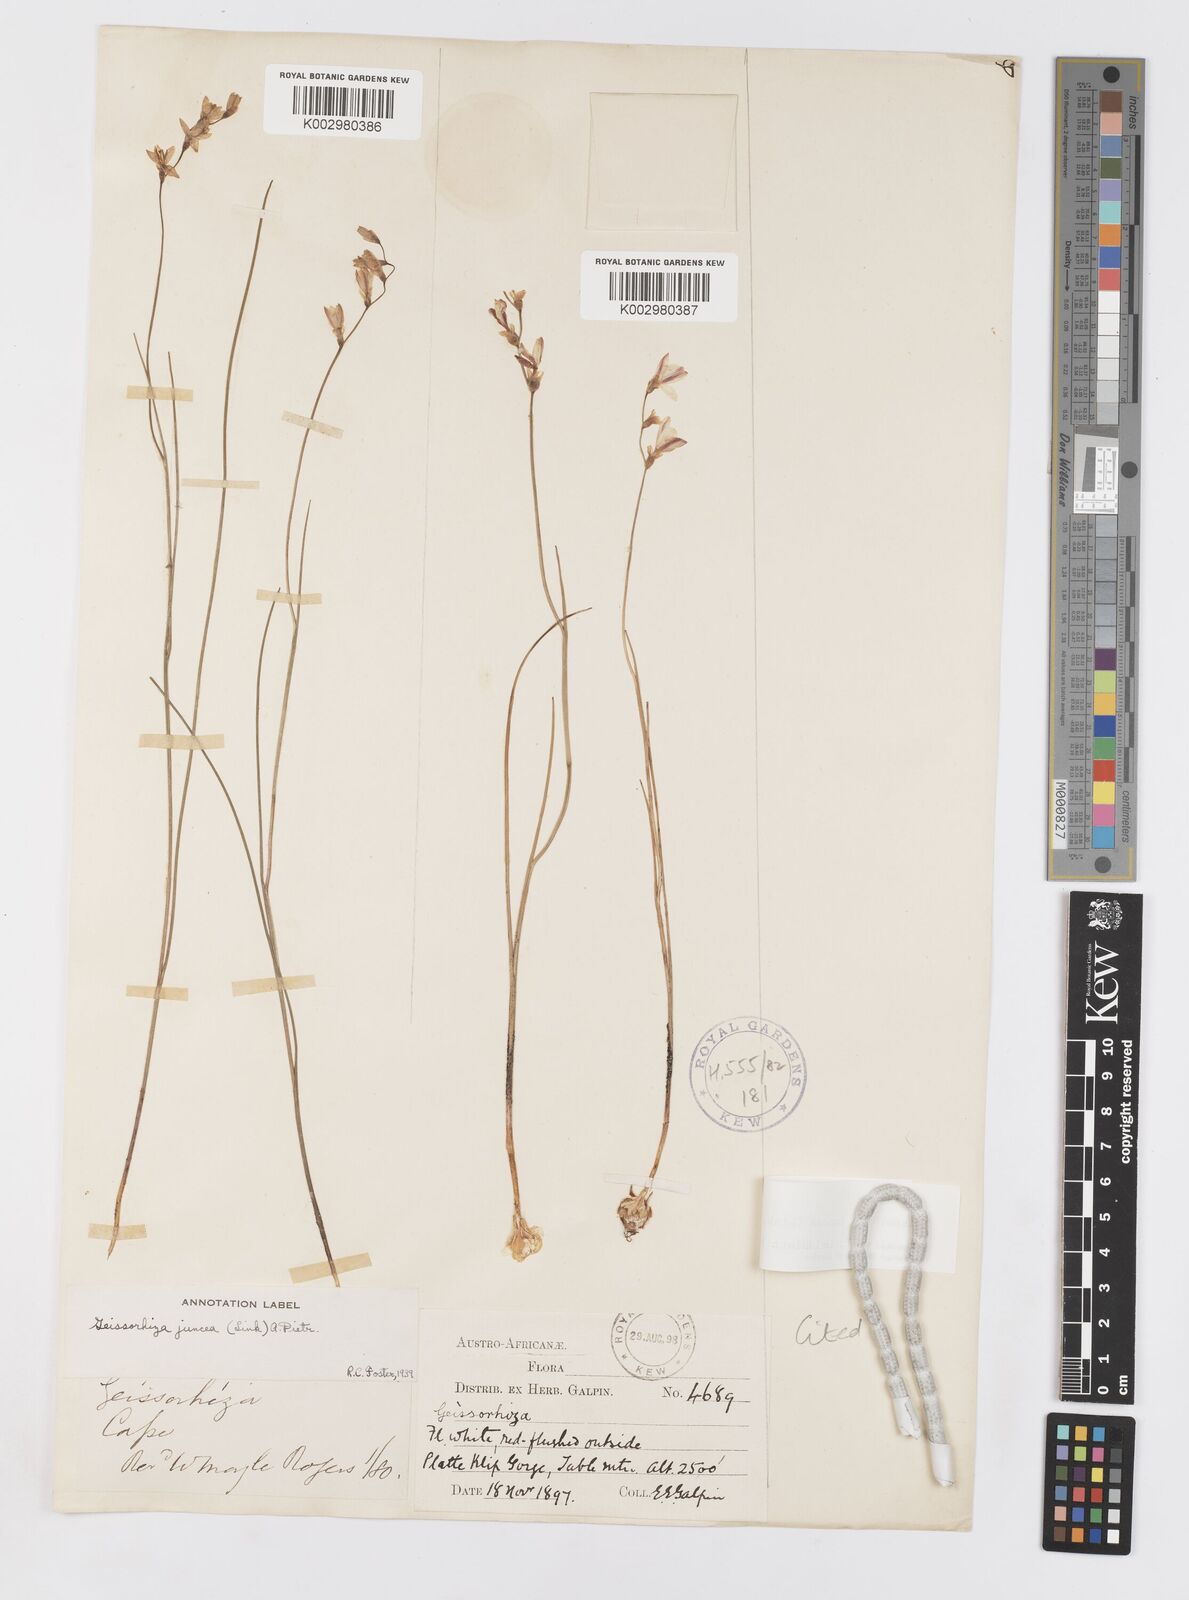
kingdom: Plantae
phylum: Tracheophyta
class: Liliopsida
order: Asparagales
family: Iridaceae
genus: Geissorhiza
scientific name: Geissorhiza juncea
